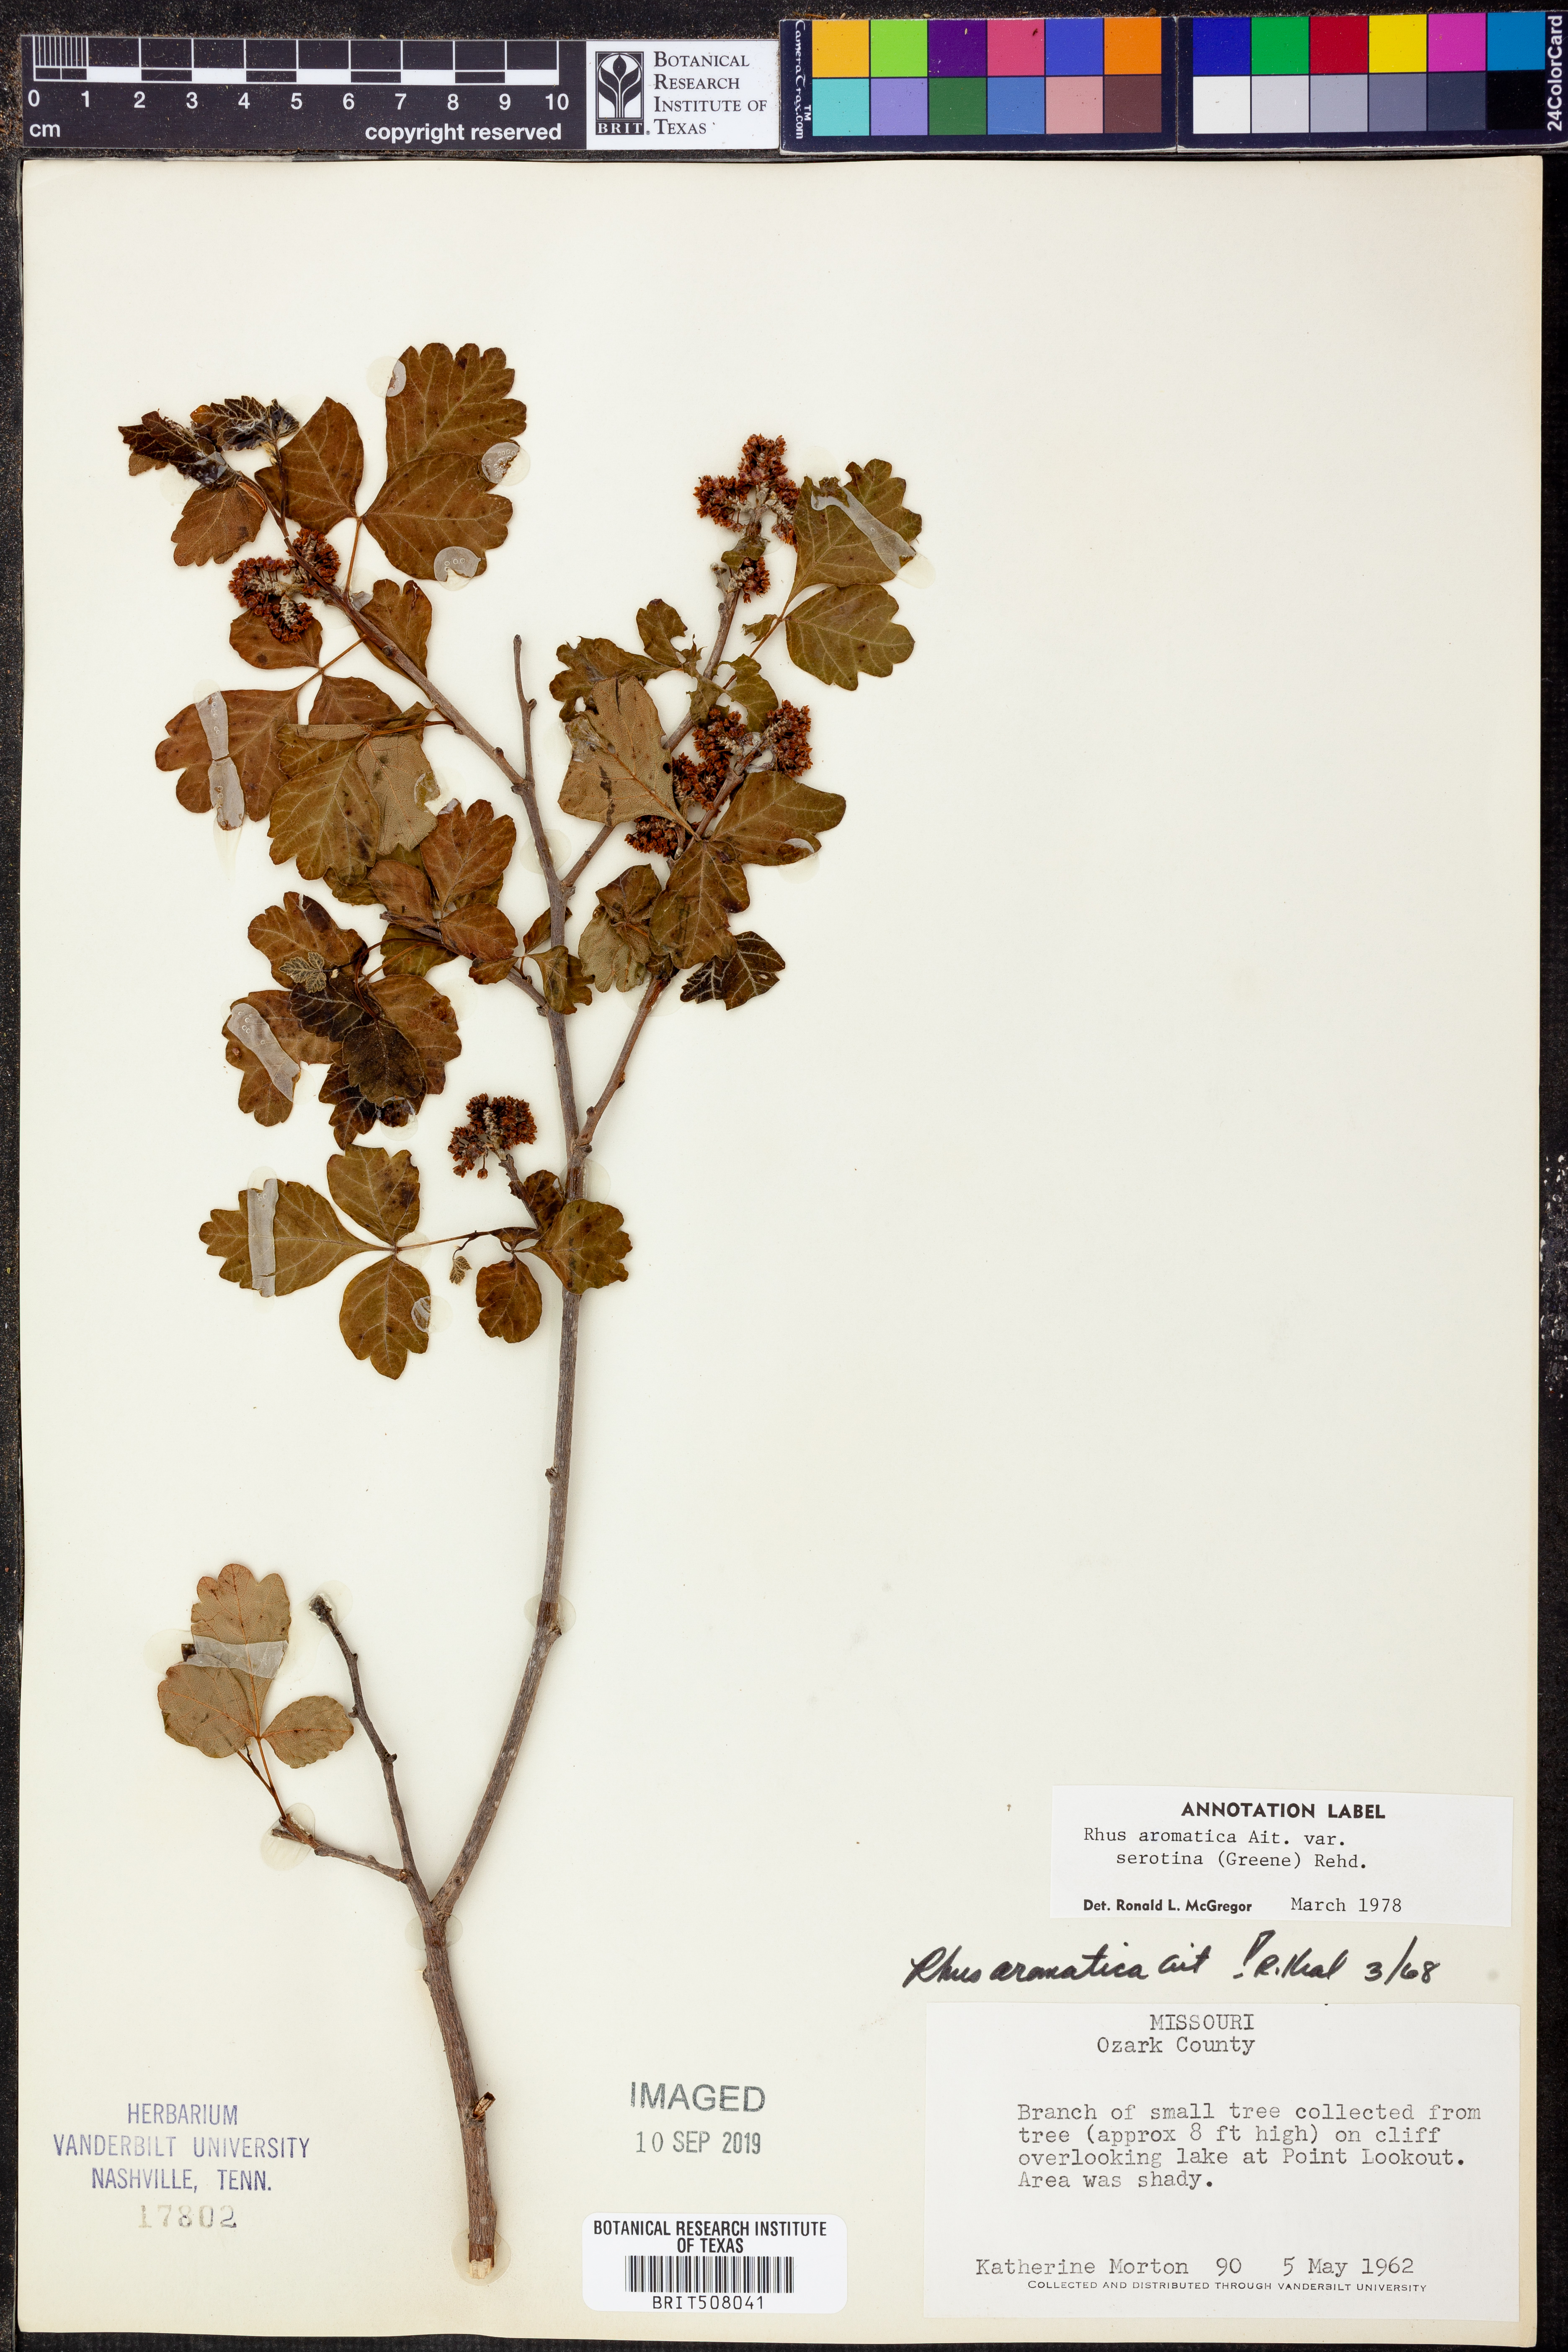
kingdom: Plantae
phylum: Tracheophyta
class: Magnoliopsida
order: Sapindales
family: Anacardiaceae
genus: Rhus
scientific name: Rhus aromatica
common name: Aromatic sumac
